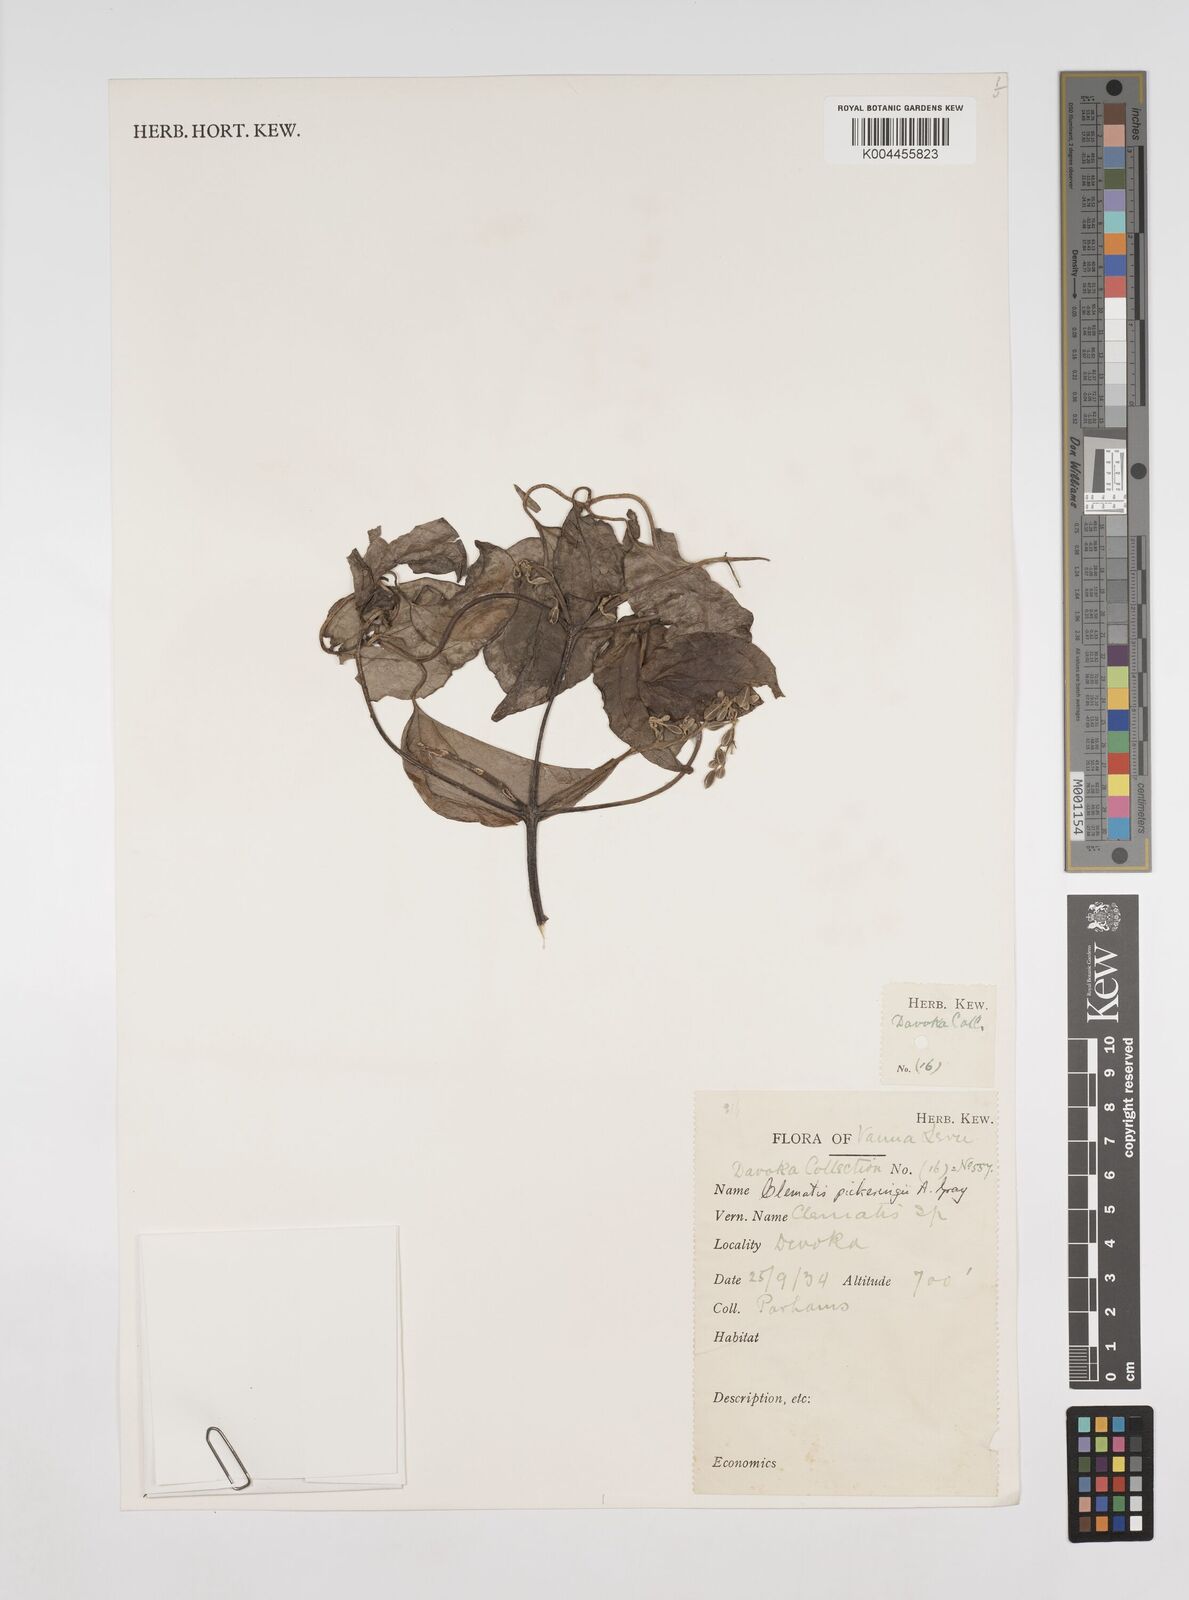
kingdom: Plantae
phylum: Tracheophyta
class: Magnoliopsida
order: Ranunculales
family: Ranunculaceae
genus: Clematis
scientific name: Clematis pickeringii
